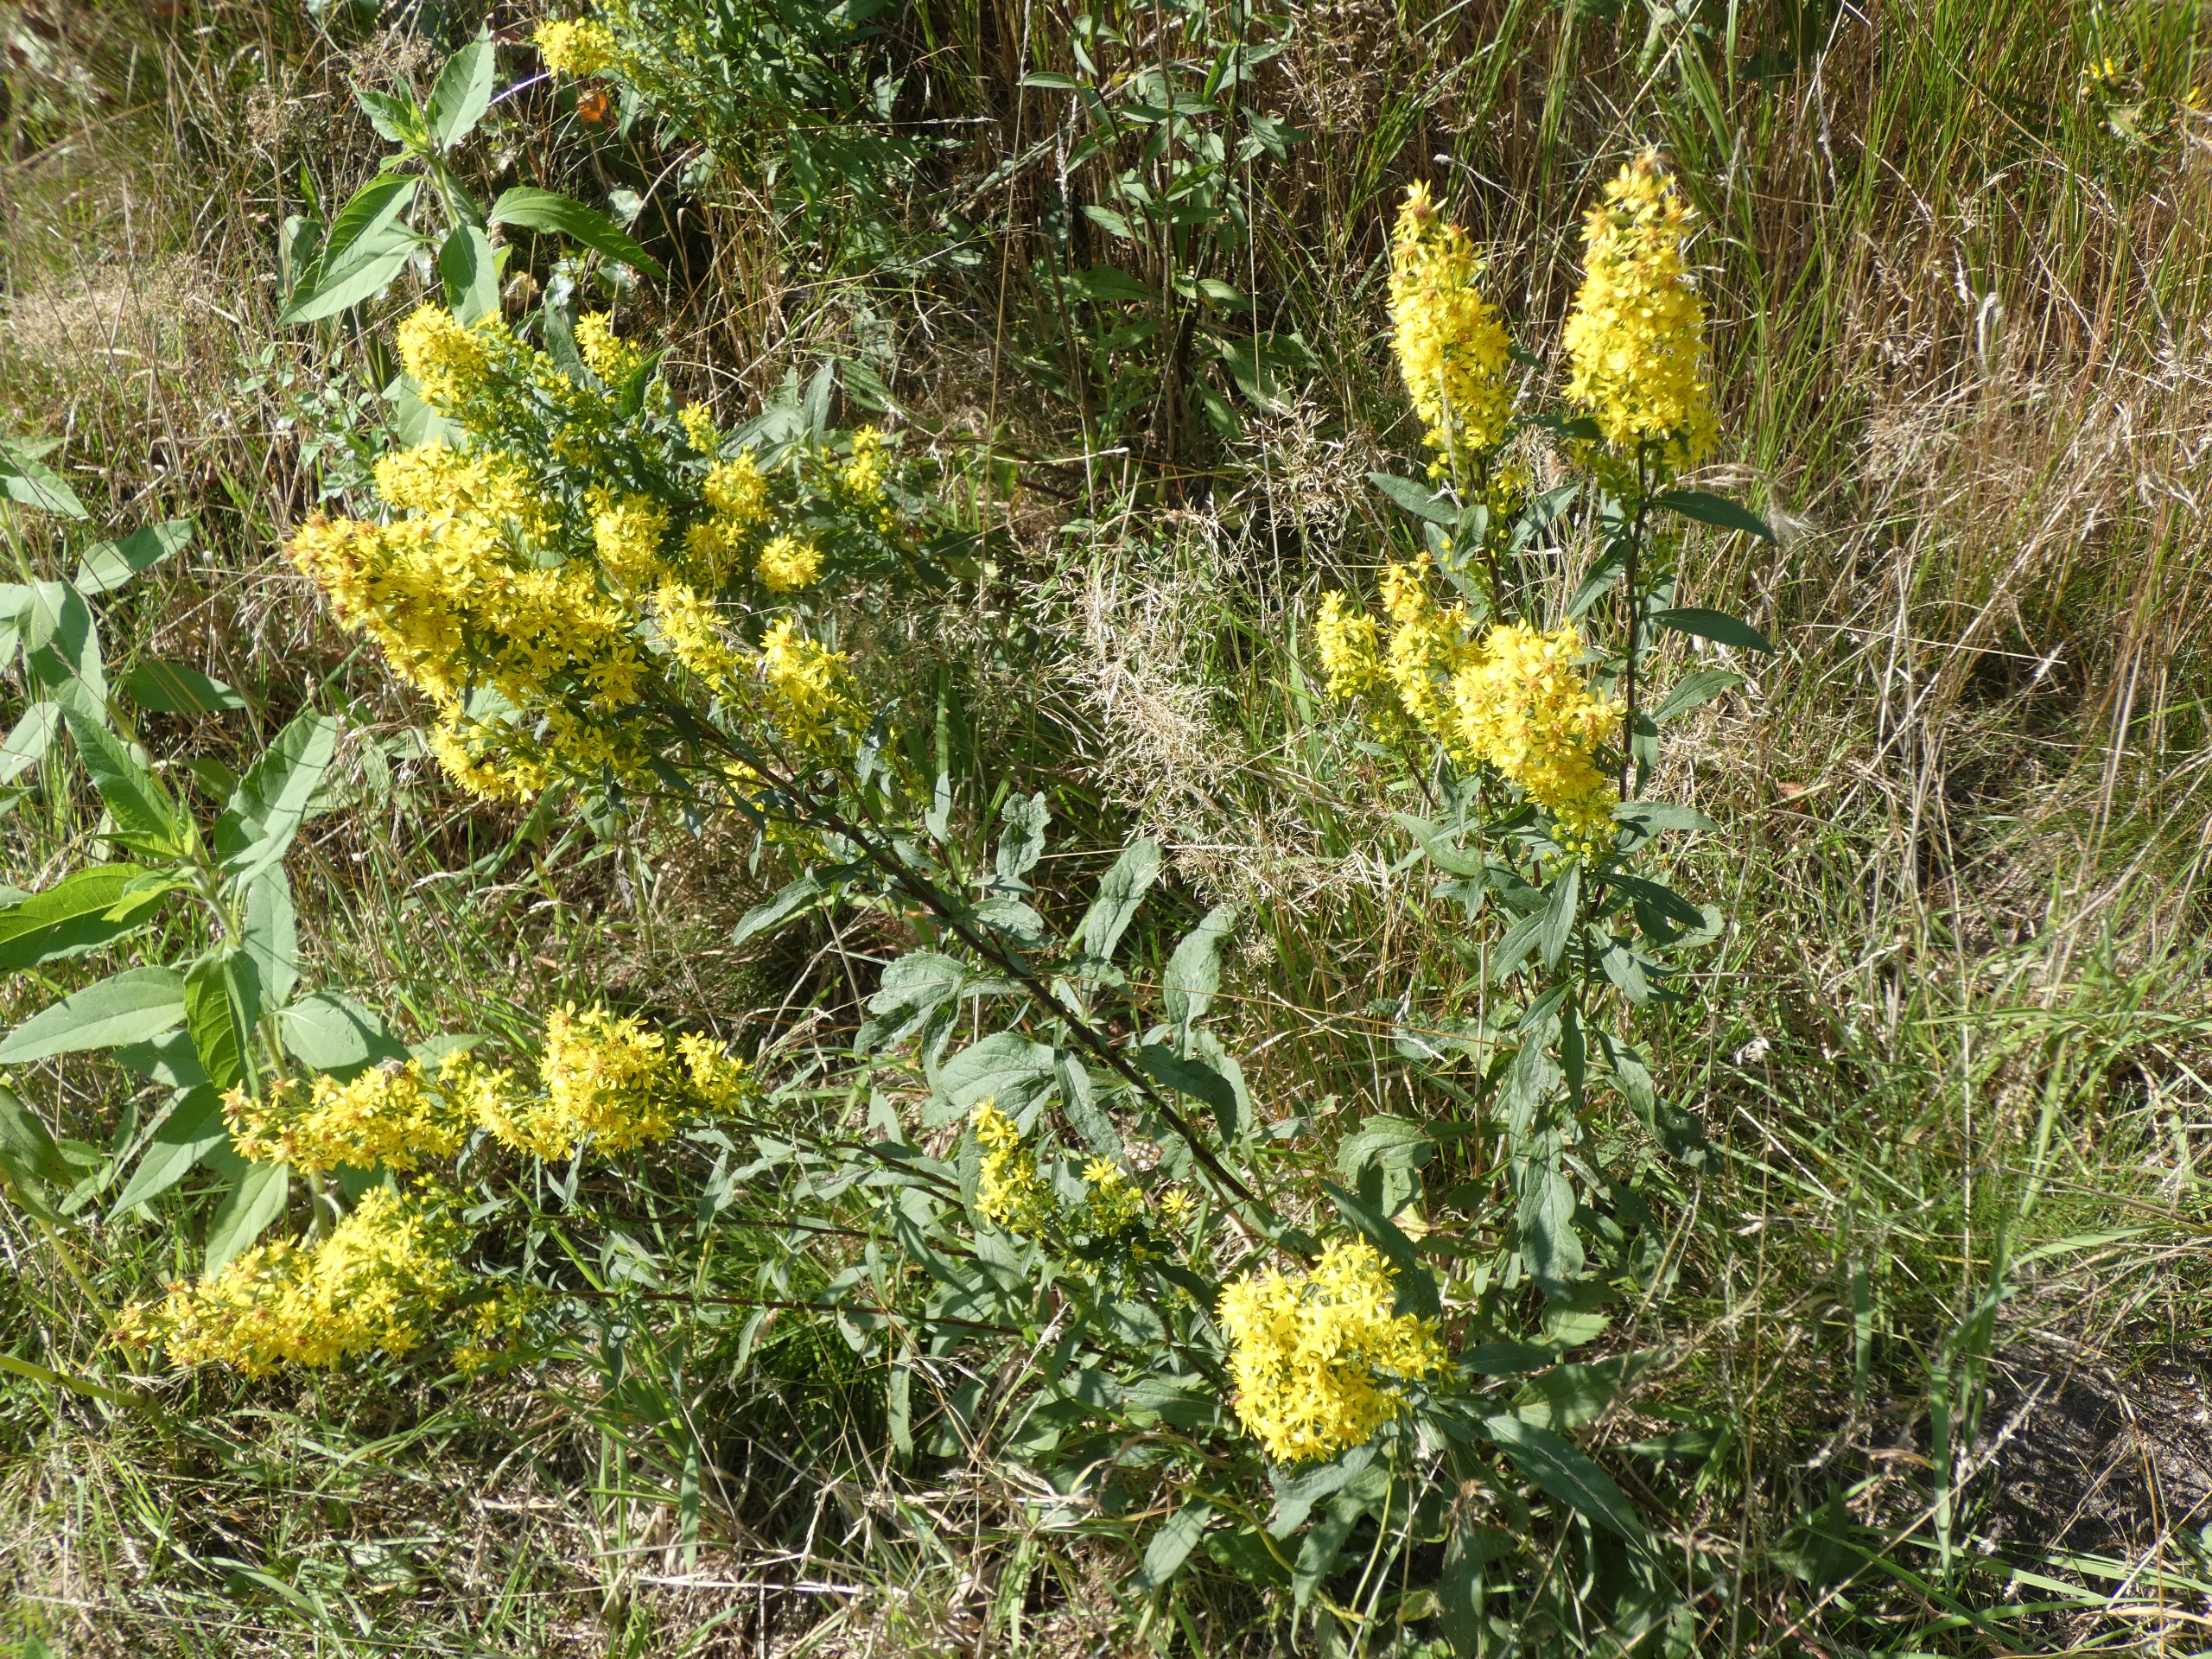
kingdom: Plantae
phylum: Tracheophyta
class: Magnoliopsida
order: Asterales
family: Asteraceae
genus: Solidago
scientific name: Solidago virgaurea
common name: Almindelig gyldenris
